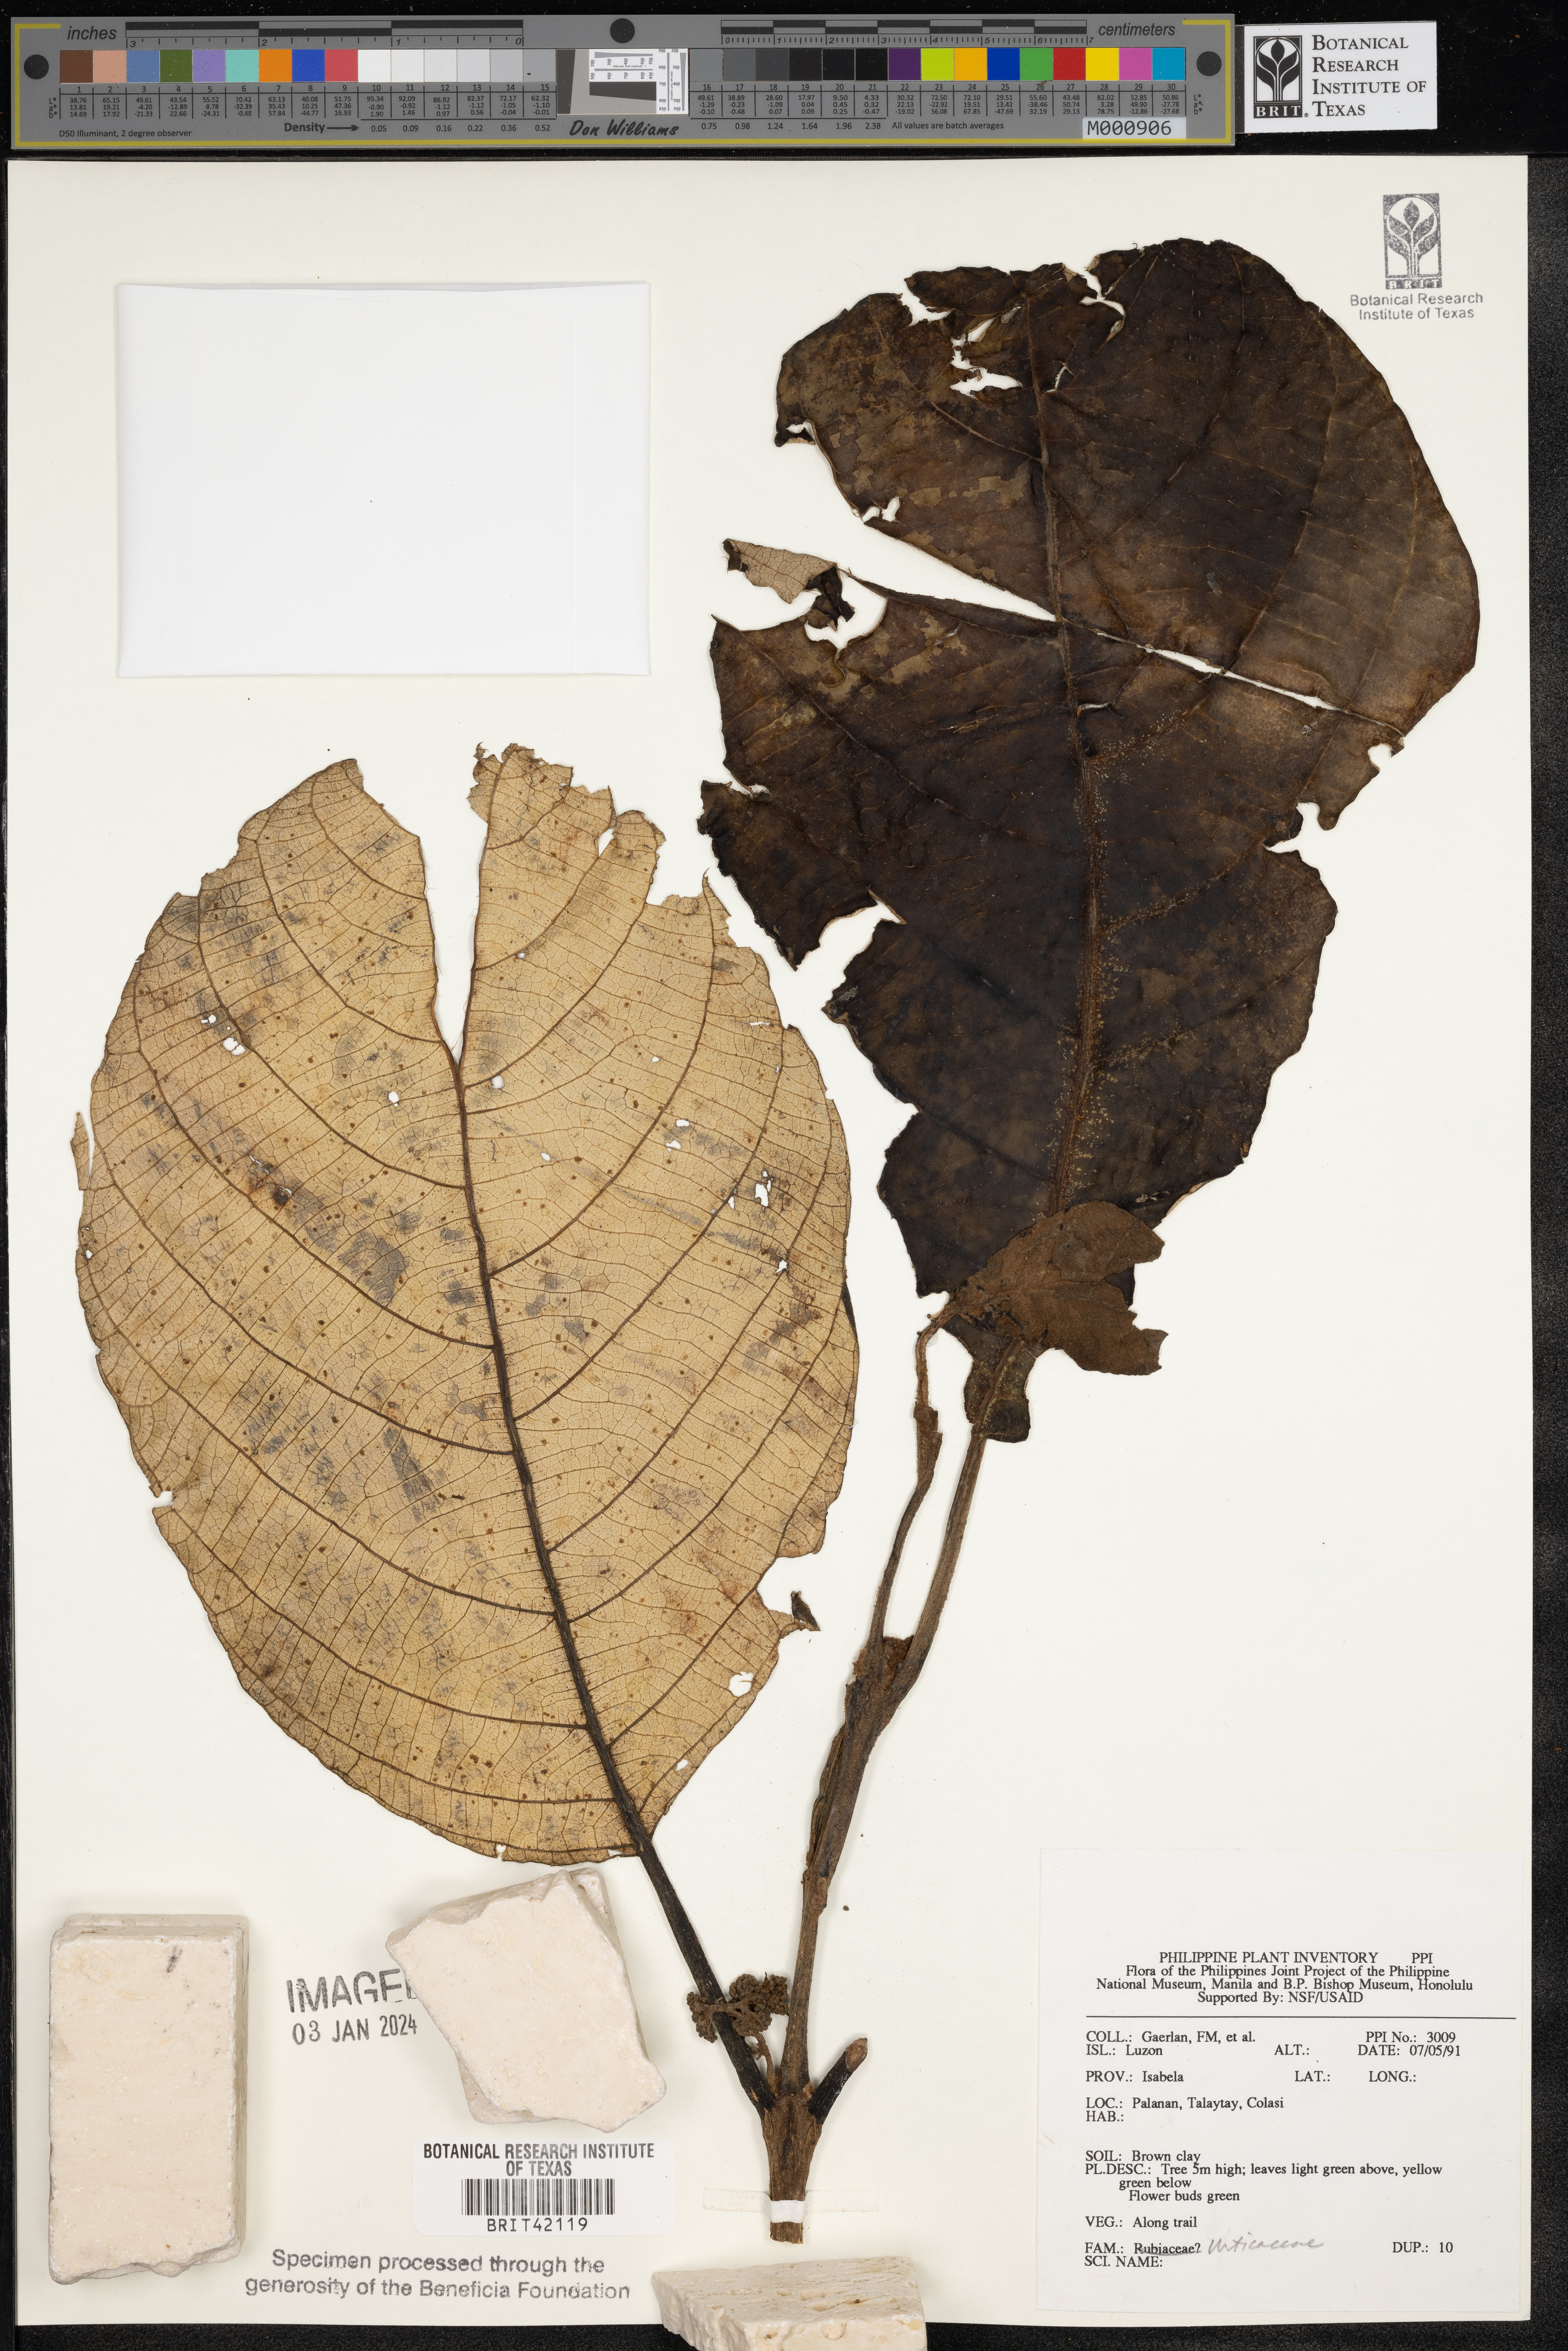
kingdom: Plantae
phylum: Tracheophyta
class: Magnoliopsida
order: Rosales
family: Urticaceae
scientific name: Urticaceae
